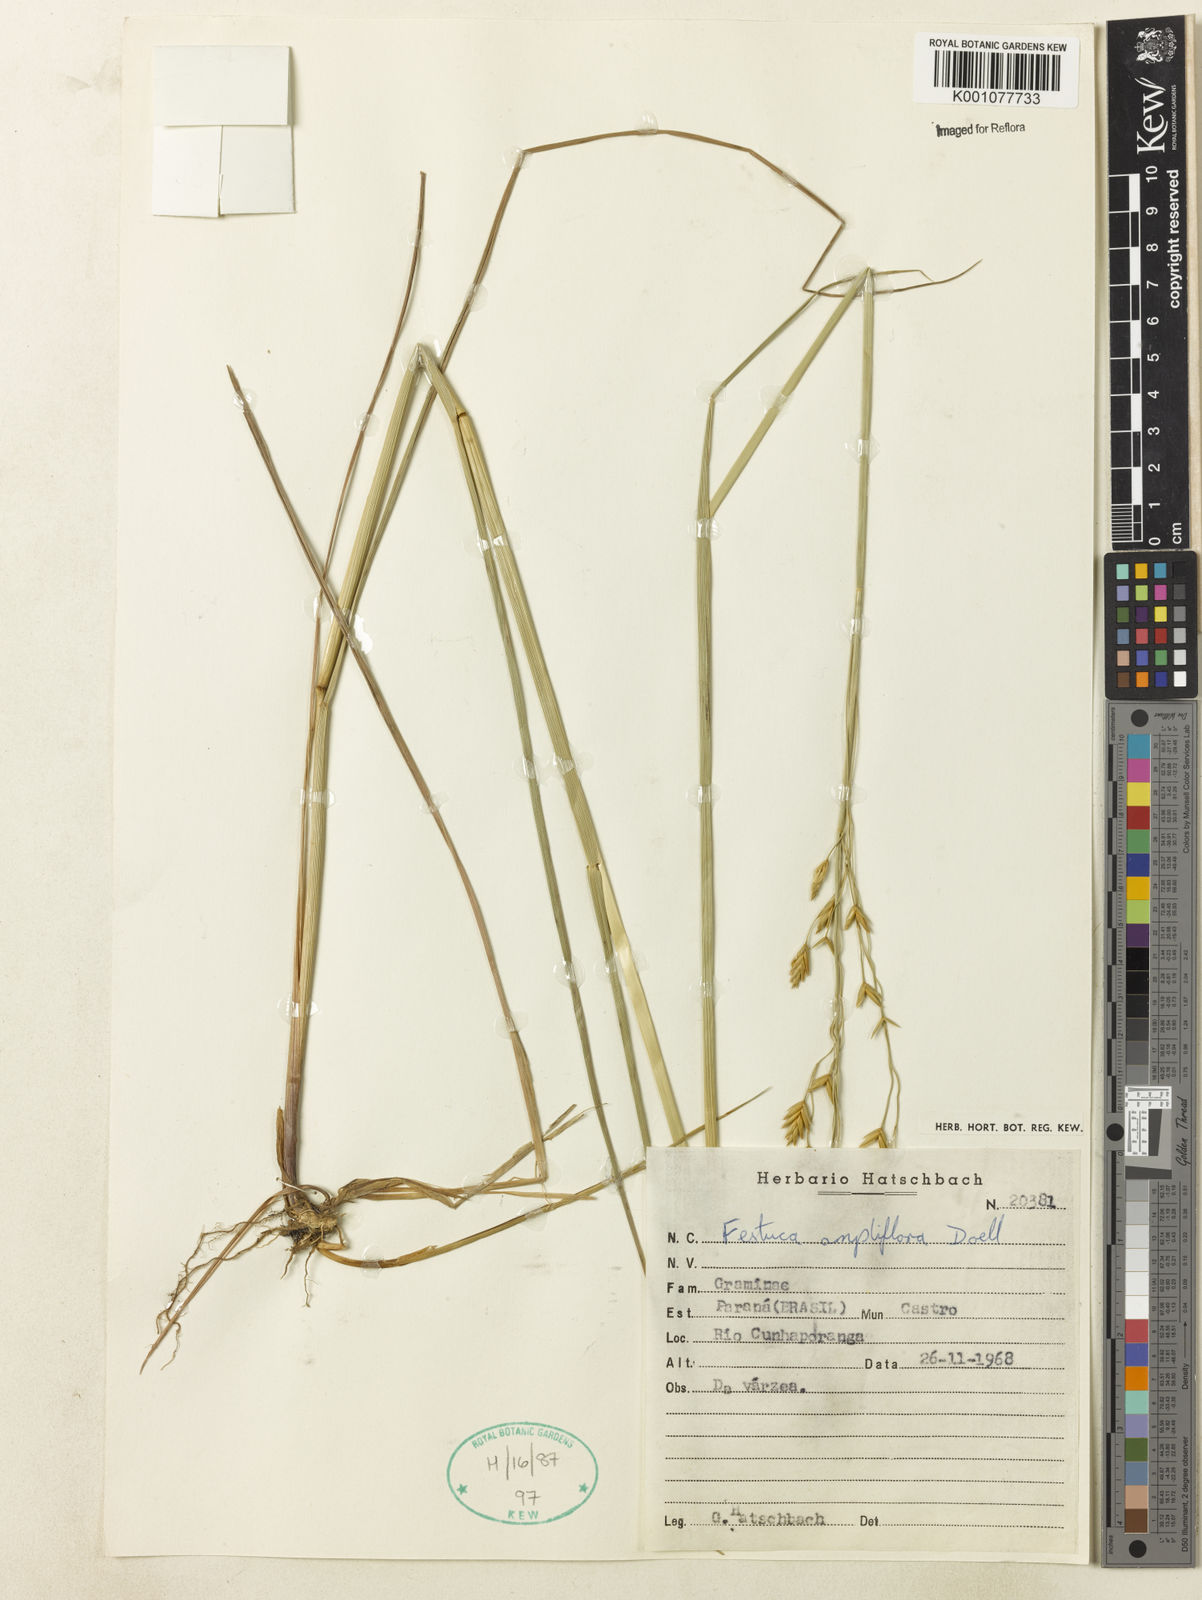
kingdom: Plantae
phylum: Tracheophyta
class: Liliopsida
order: Poales
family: Poaceae
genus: Festuca
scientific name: Festuca fimbriata
